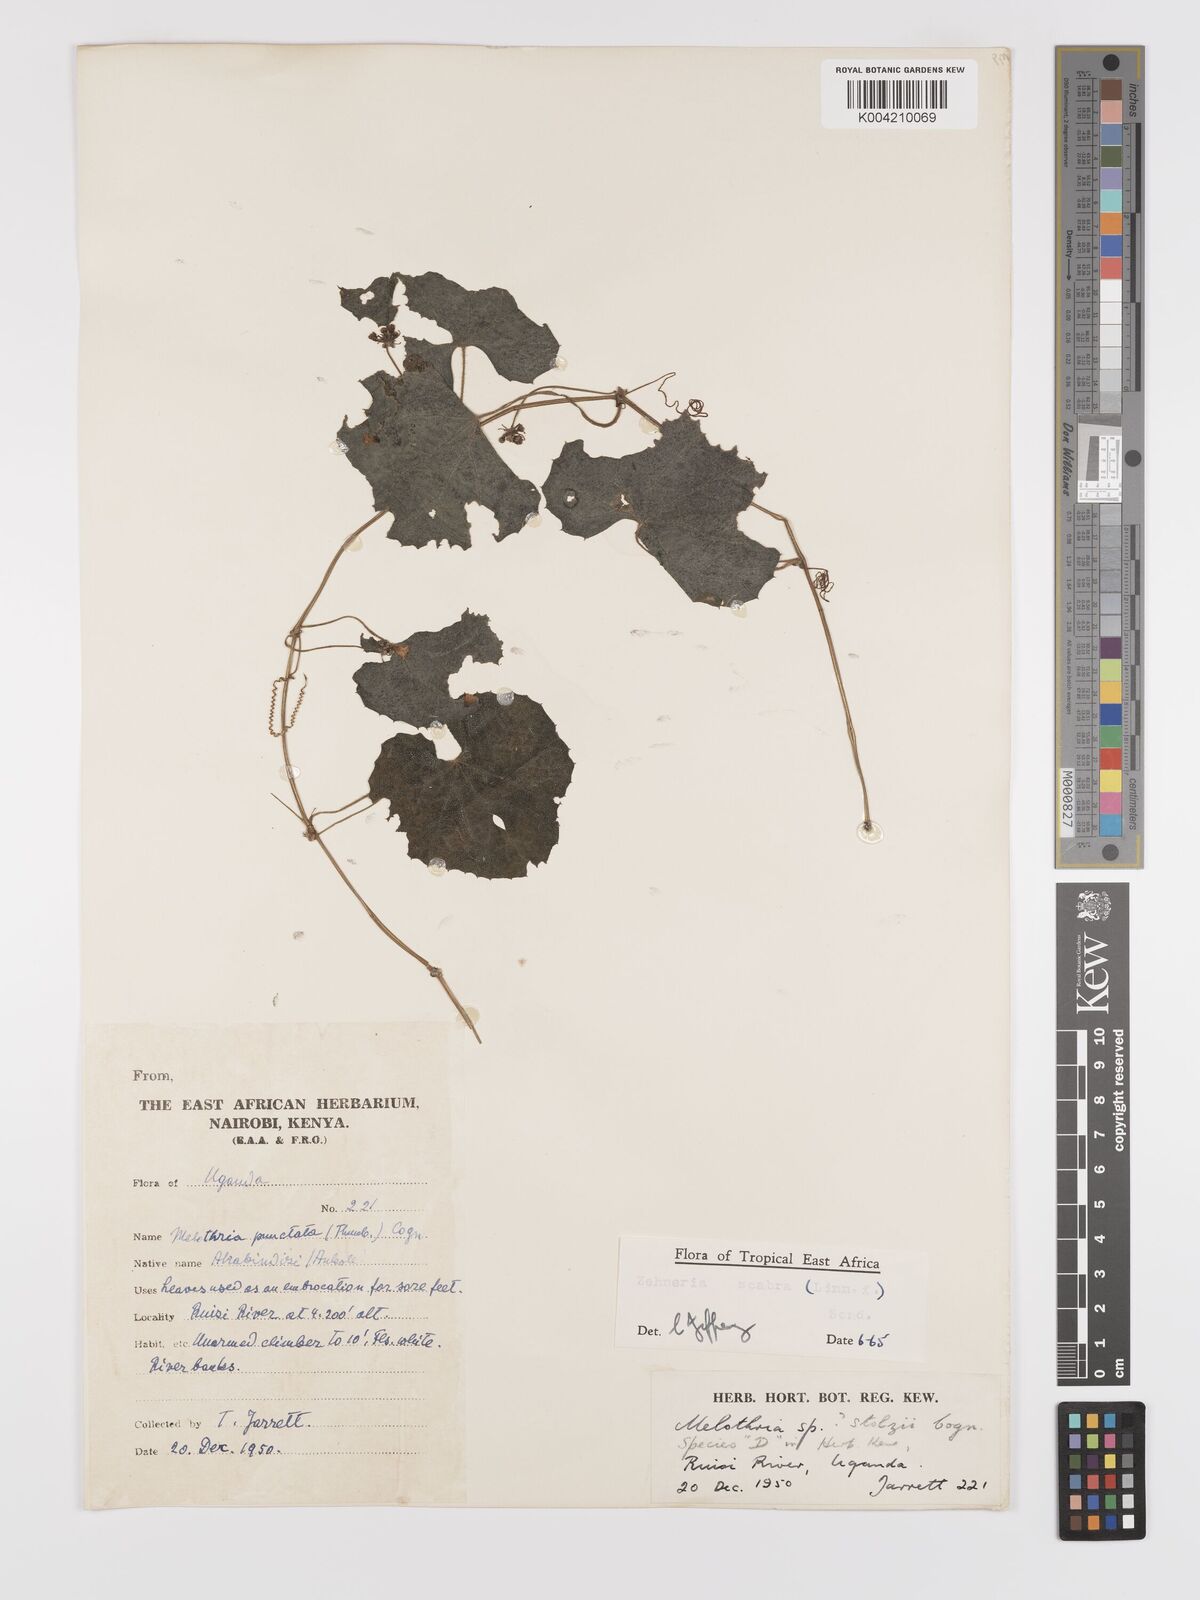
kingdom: Plantae
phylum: Tracheophyta
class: Magnoliopsida
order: Cucurbitales
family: Cucurbitaceae
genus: Zehneria
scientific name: Zehneria scabra
